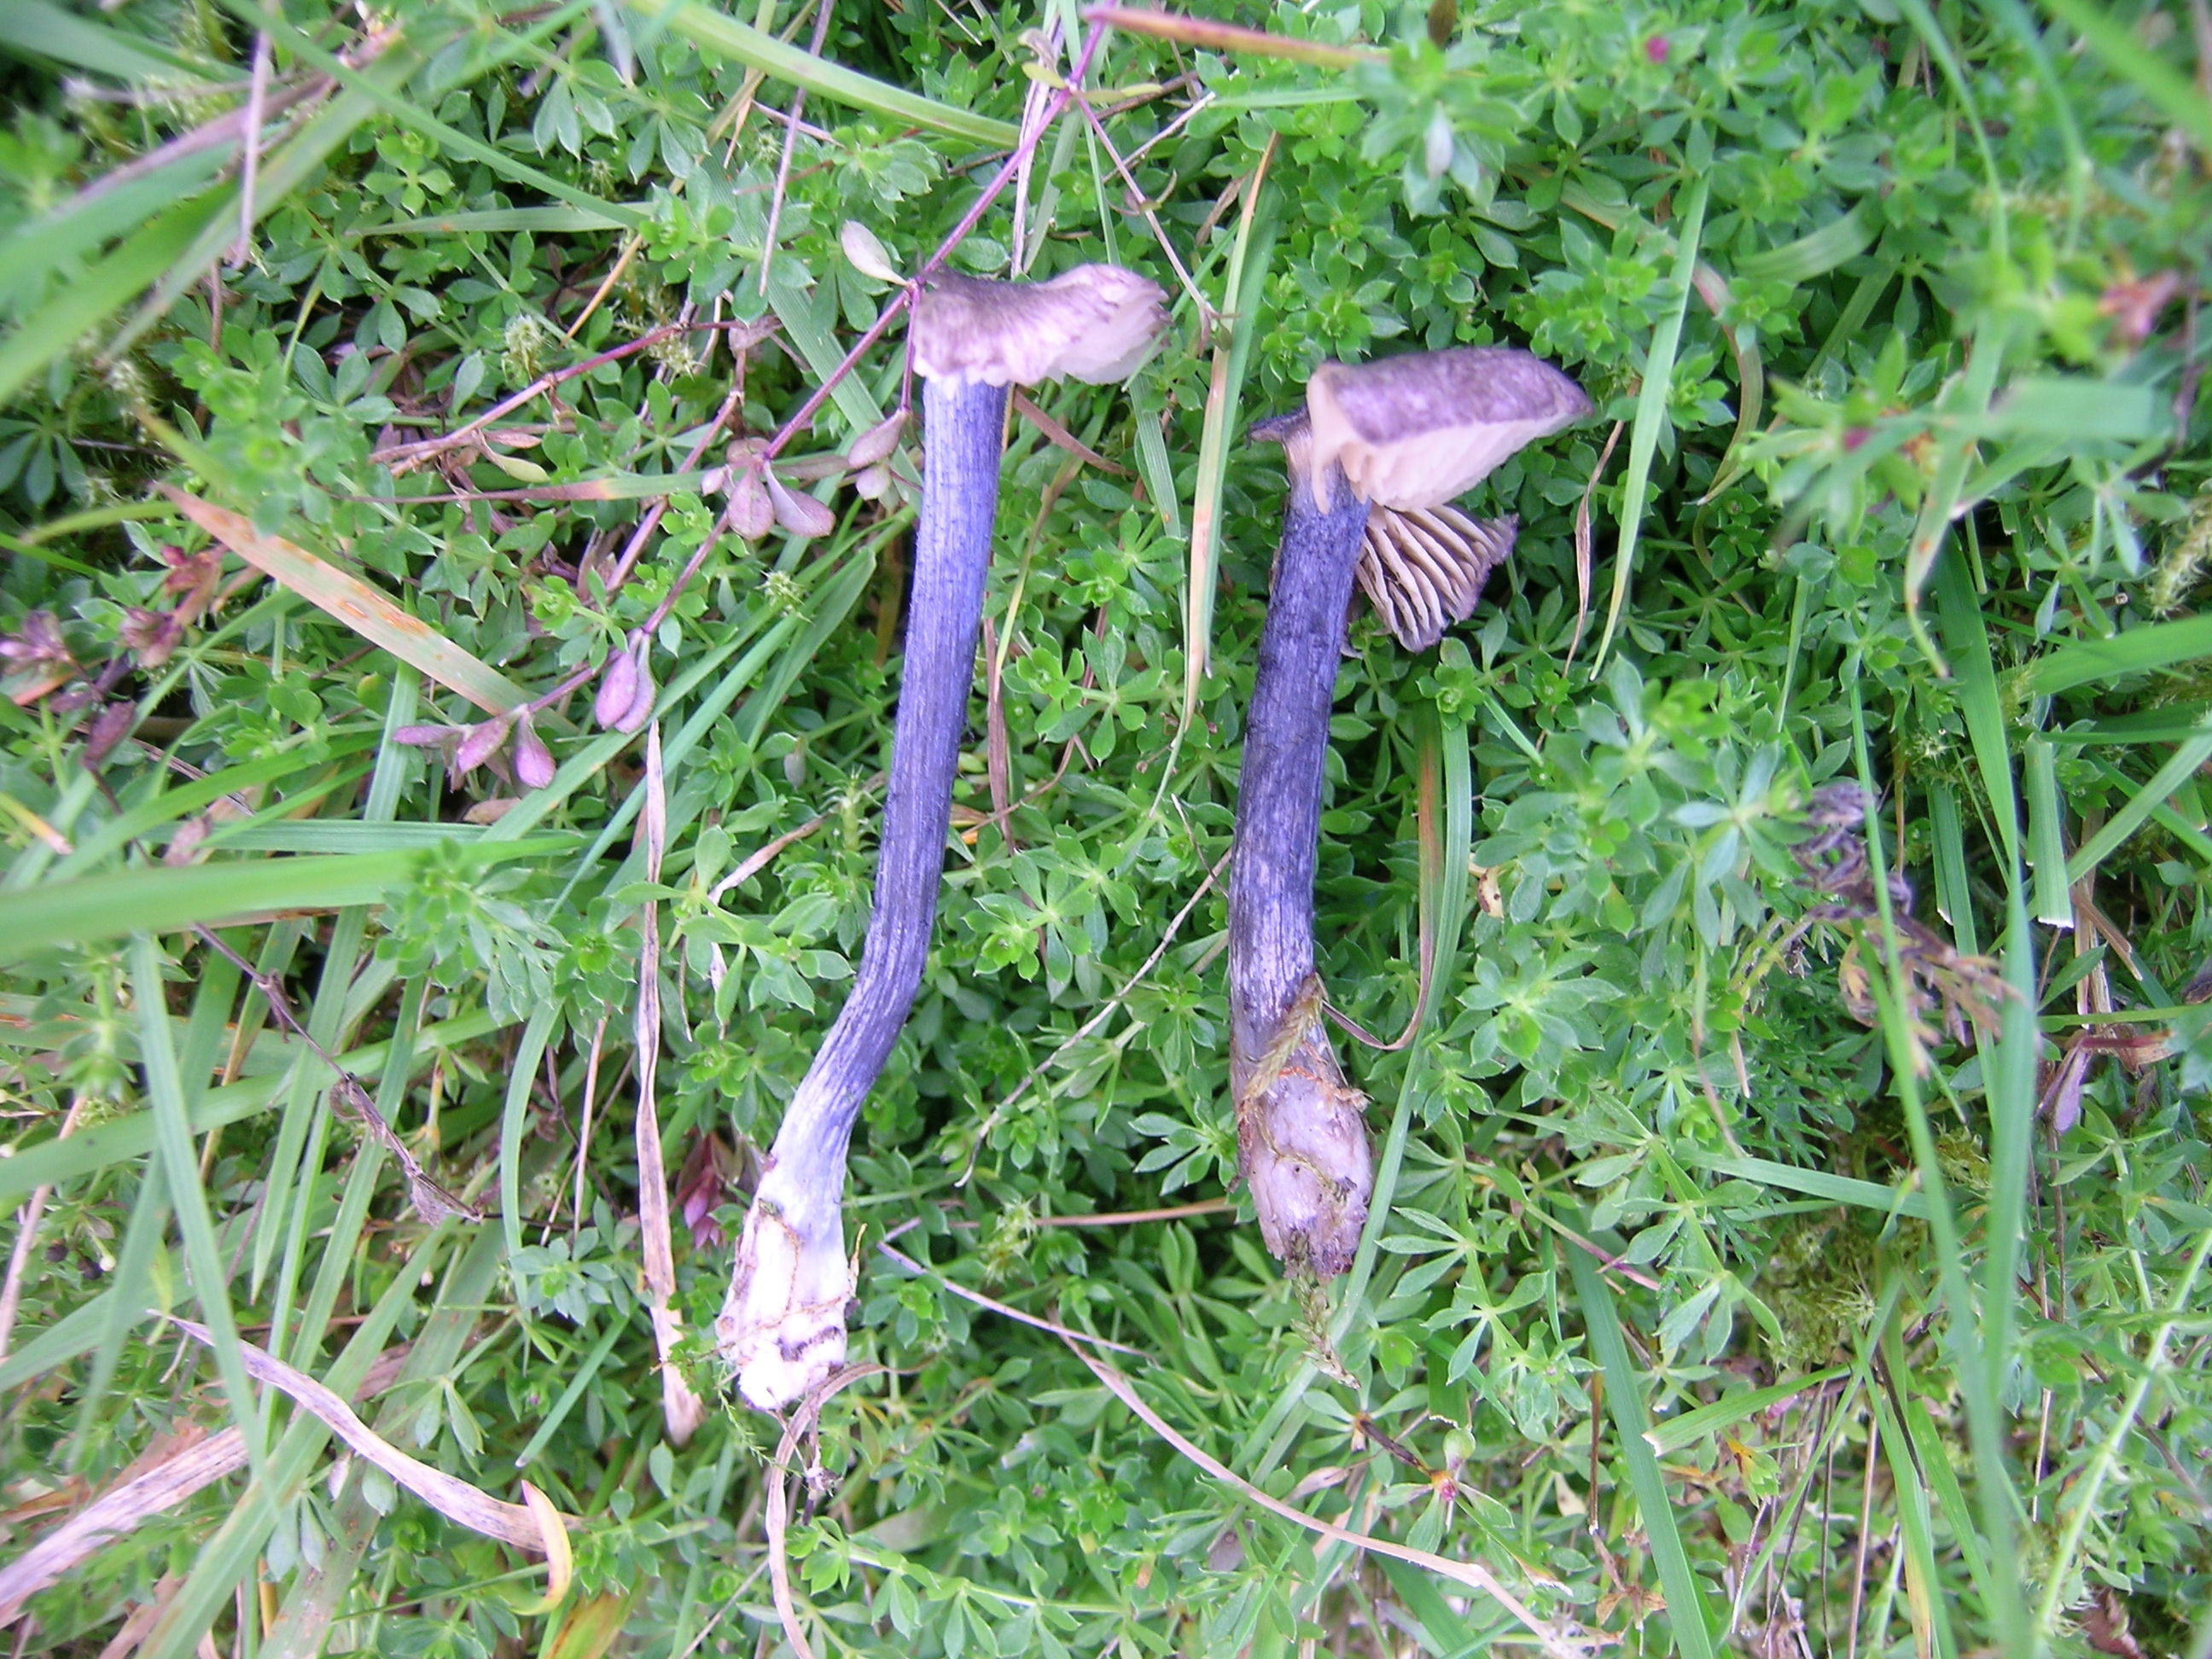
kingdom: Fungi
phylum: Basidiomycota
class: Agaricomycetes
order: Agaricales
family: Entolomataceae
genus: Entoloma
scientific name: Entoloma lampropus
